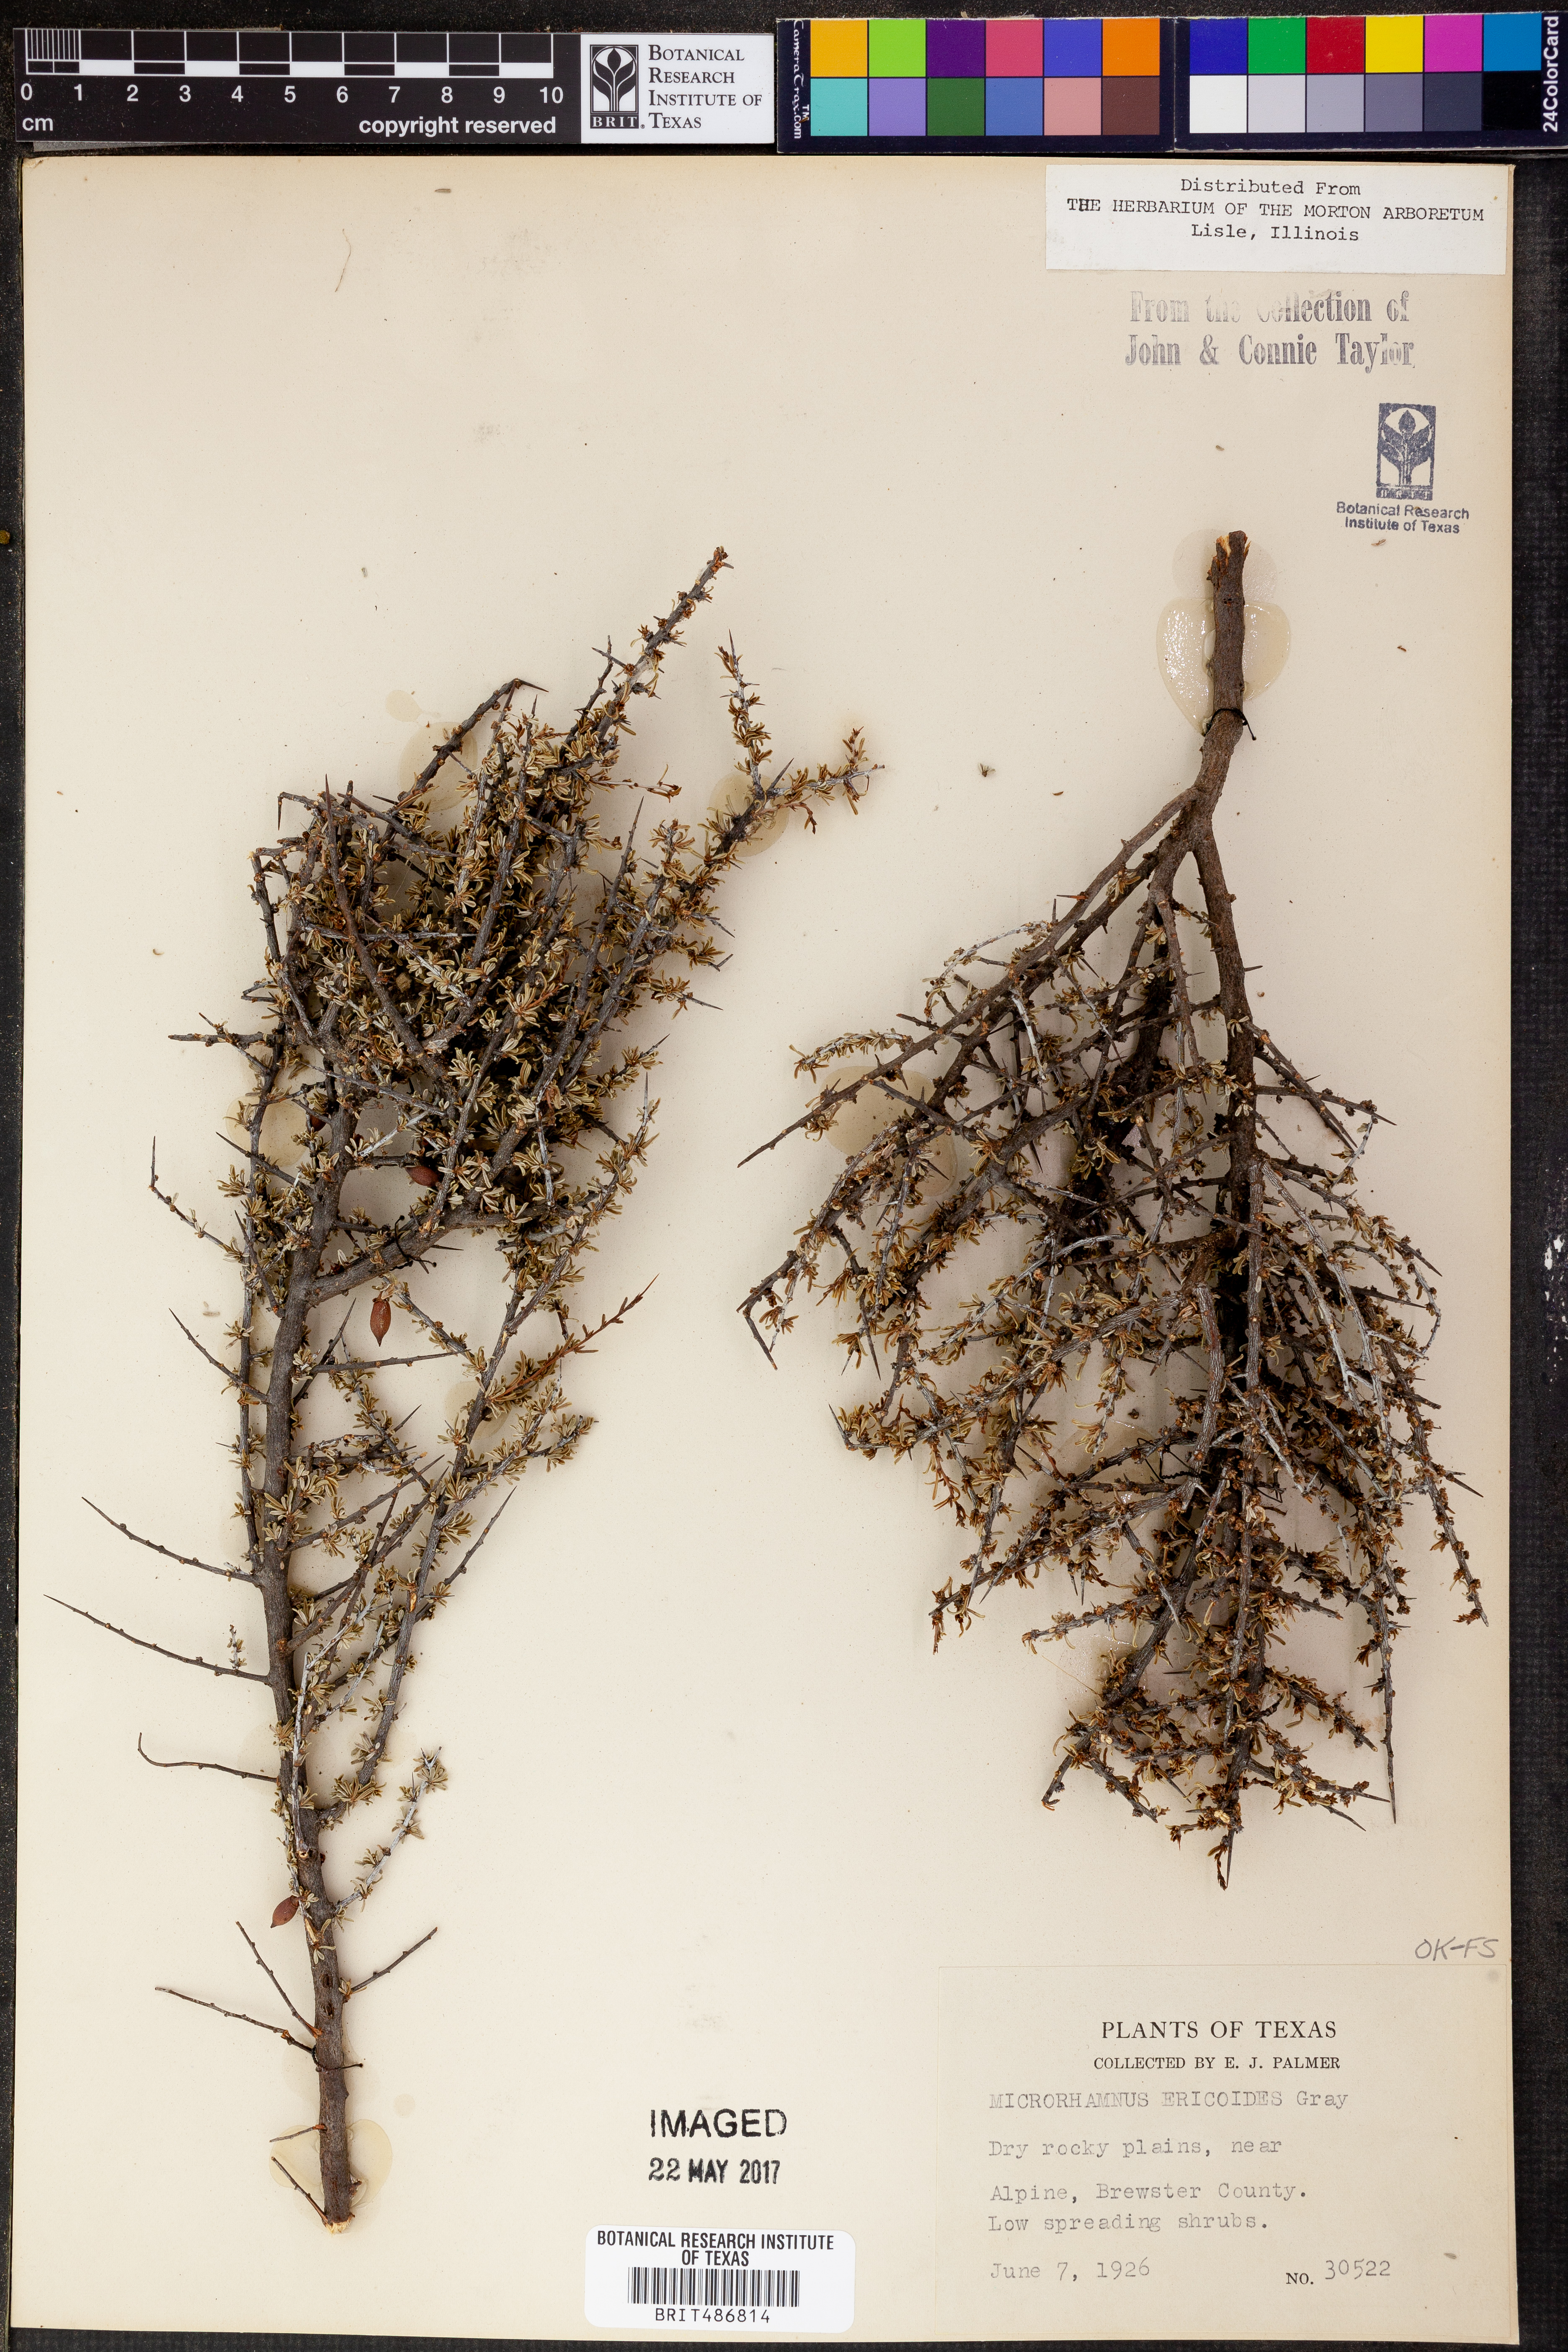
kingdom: Plantae
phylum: Tracheophyta
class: Magnoliopsida
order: Rosales
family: Rhamnaceae
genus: Condalia
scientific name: Condalia ericoides
